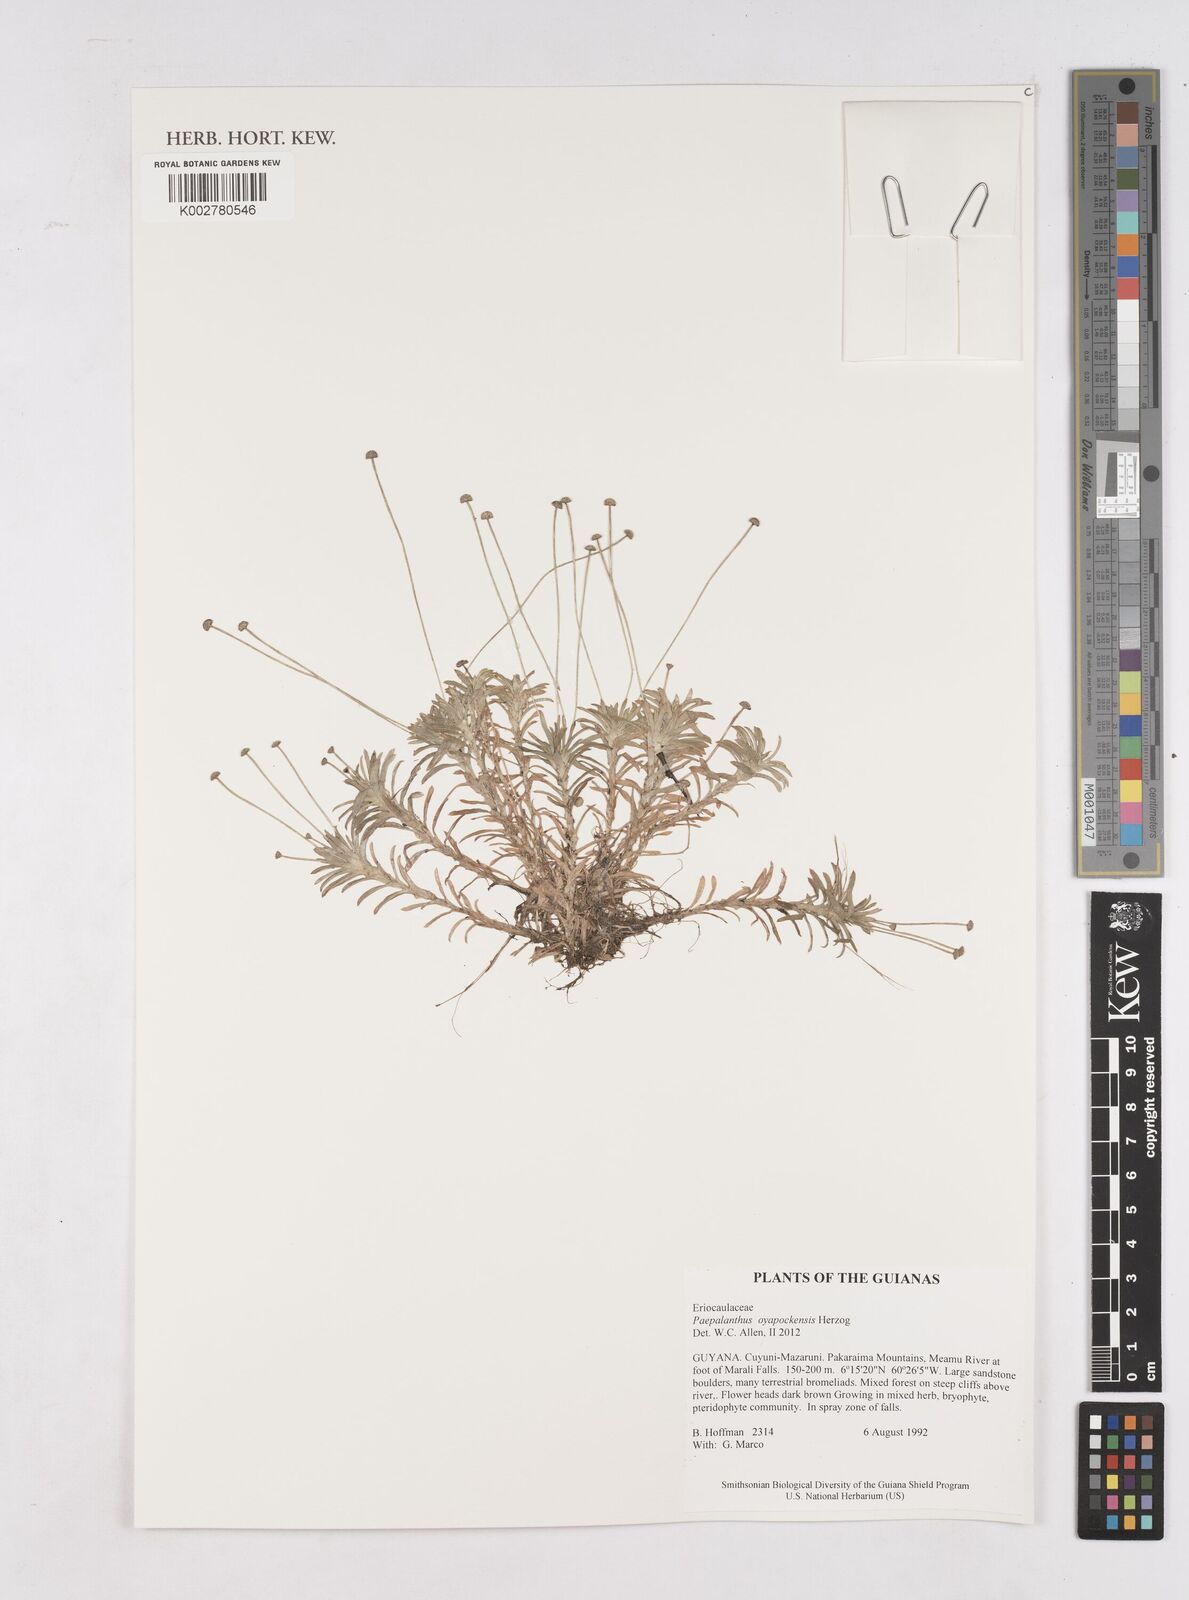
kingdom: Plantae
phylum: Tracheophyta
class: Liliopsida
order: Poales
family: Eriocaulaceae
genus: Paepalanthus
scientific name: Paepalanthus oyapockensis
